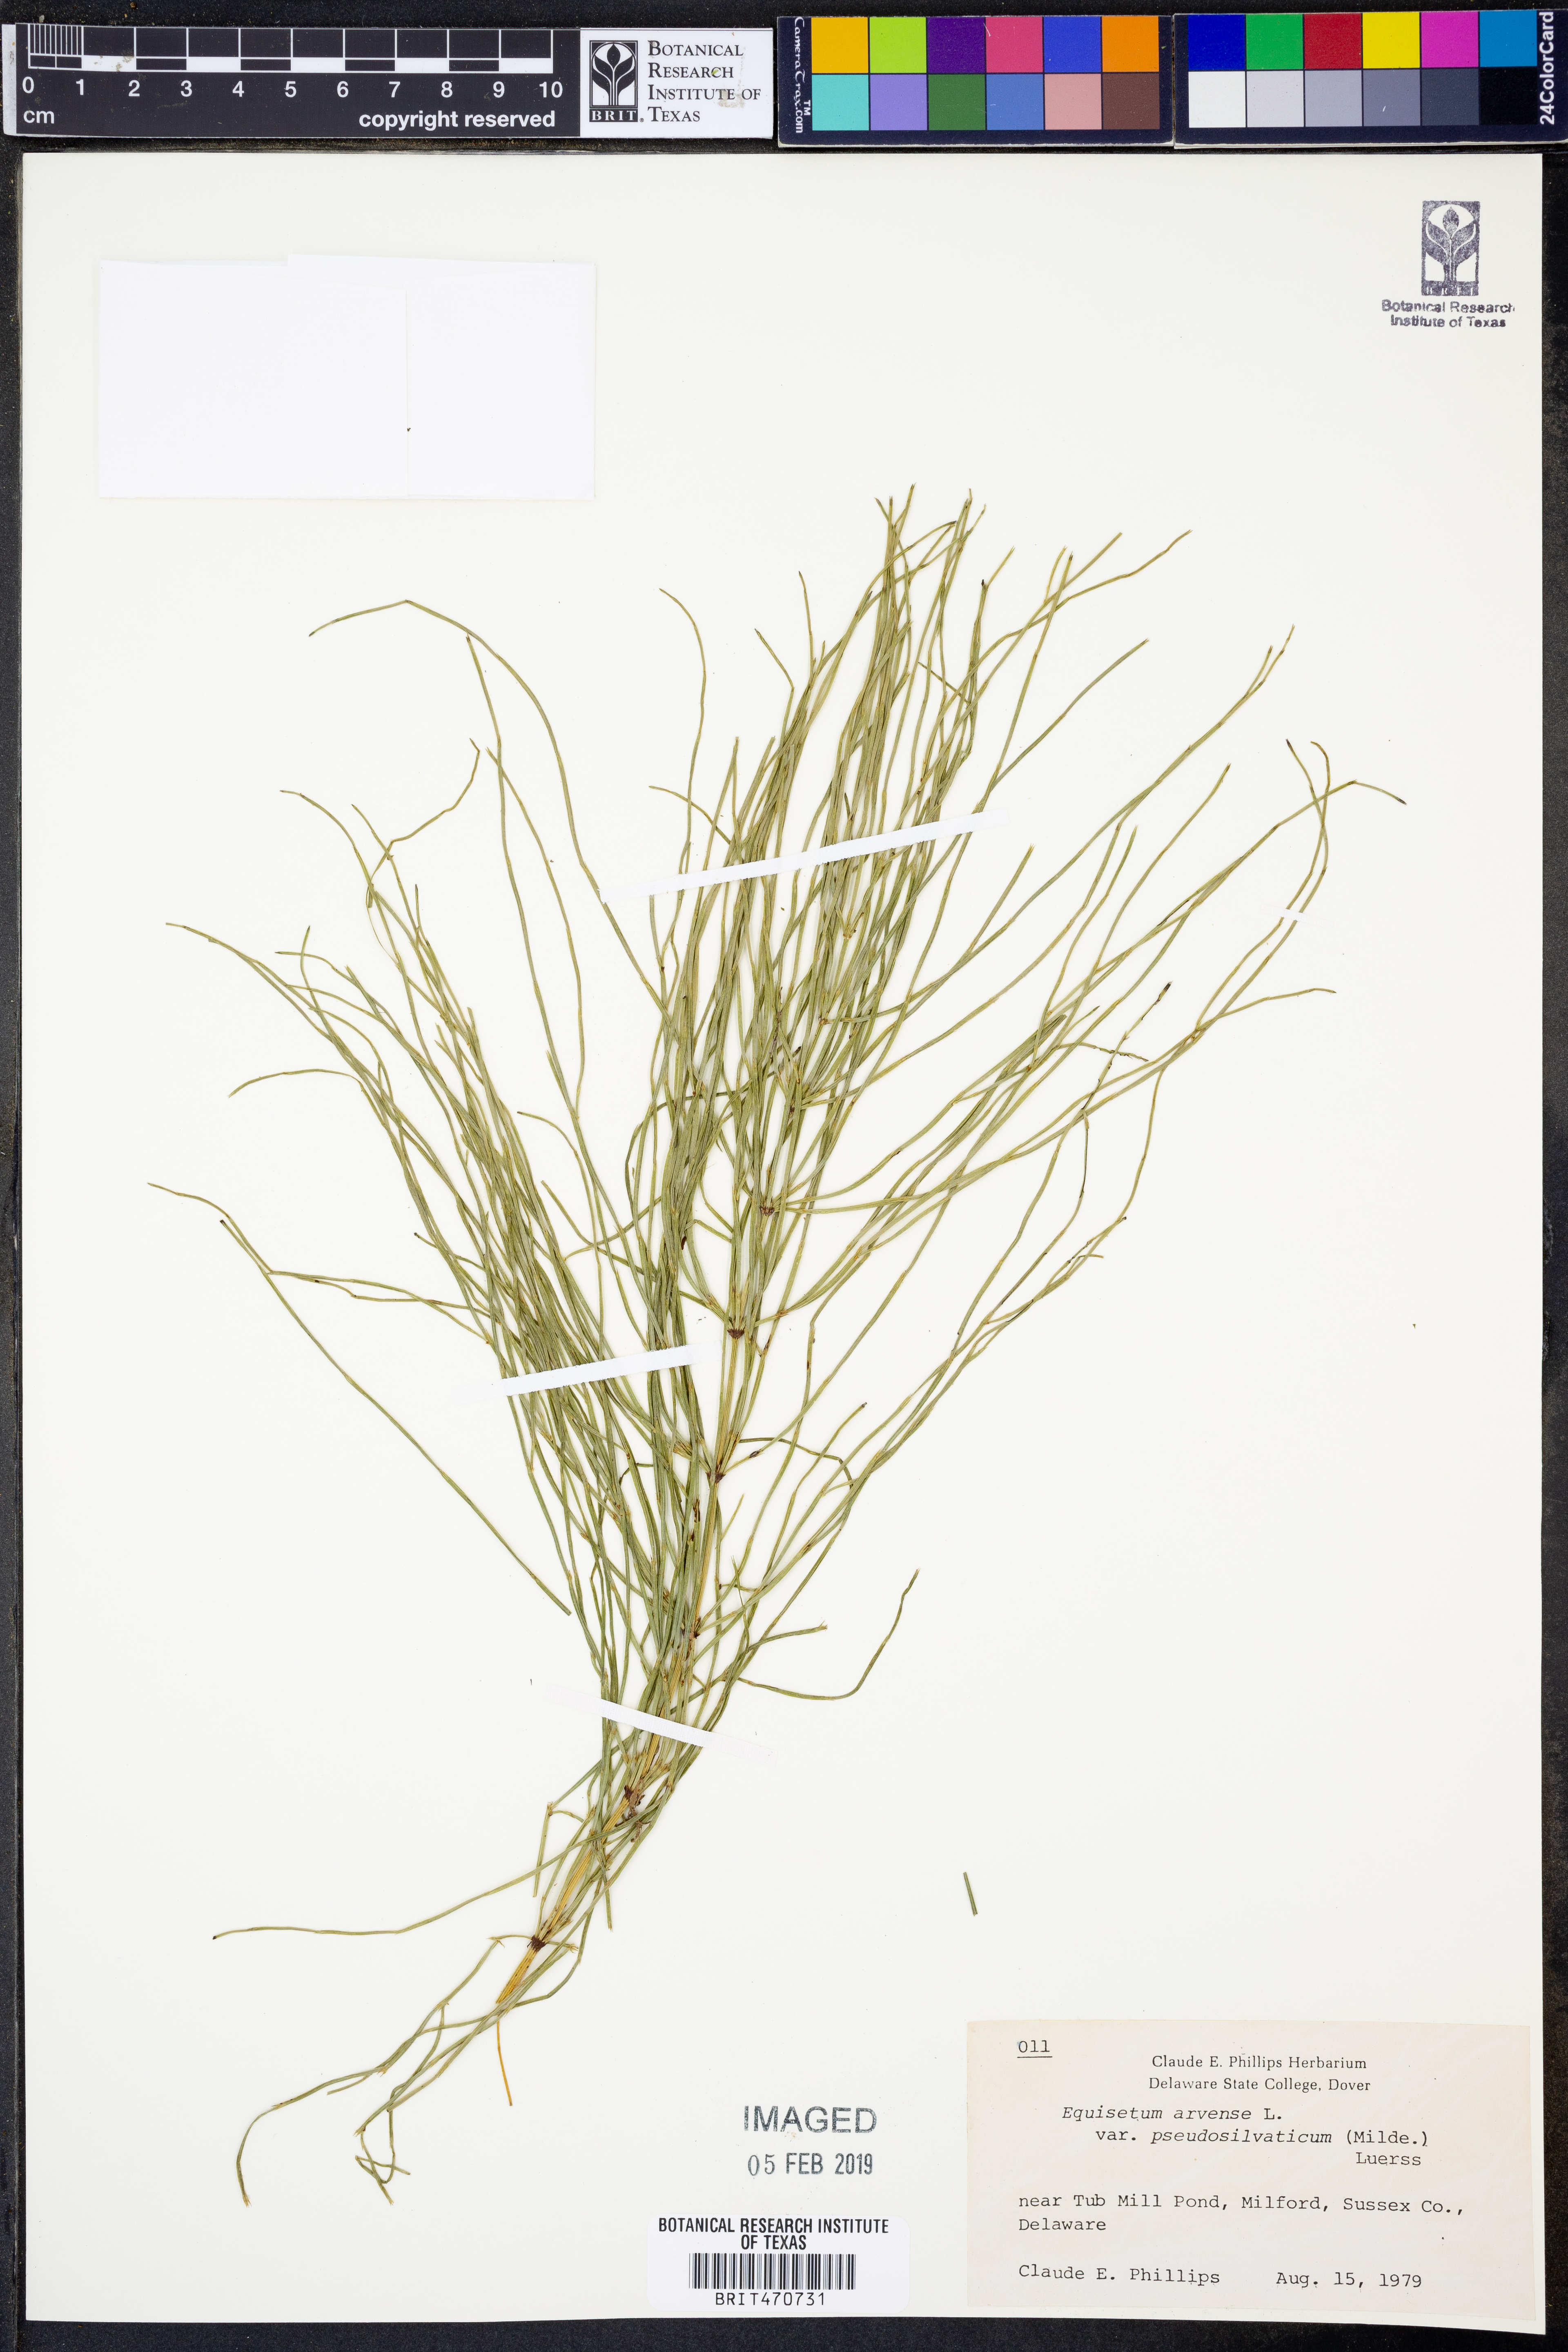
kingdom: Plantae
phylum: Tracheophyta
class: Polypodiopsida
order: Equisetales
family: Equisetaceae
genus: Equisetum
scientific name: Equisetum arvense
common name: Field horsetail
